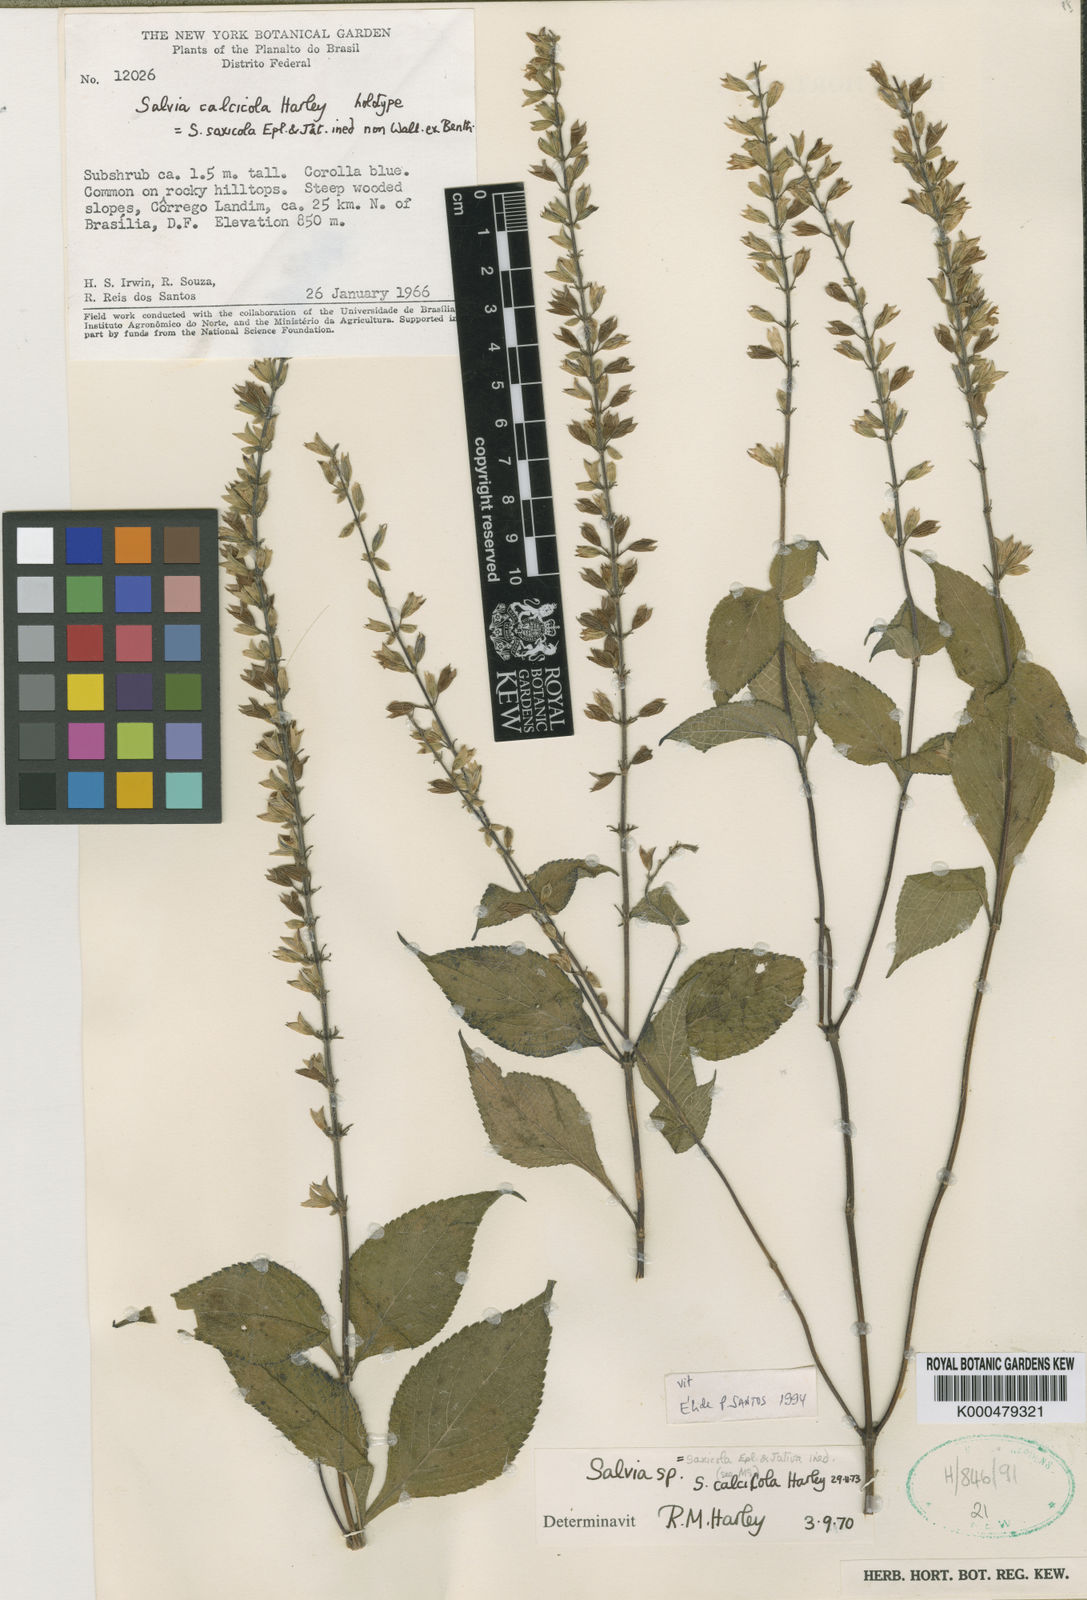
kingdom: Plantae
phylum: Tracheophyta
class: Magnoliopsida
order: Lamiales
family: Lamiaceae
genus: Salvia
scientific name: Salvia calcicola
